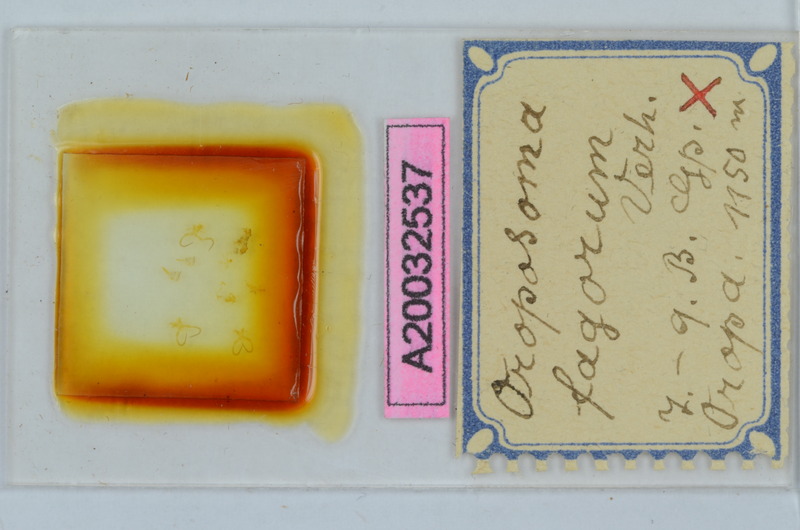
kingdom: Animalia
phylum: Arthropoda
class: Diplopoda
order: Chordeumatida
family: Craspedosomatidae
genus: Oroposoma
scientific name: Oroposoma fagorum
